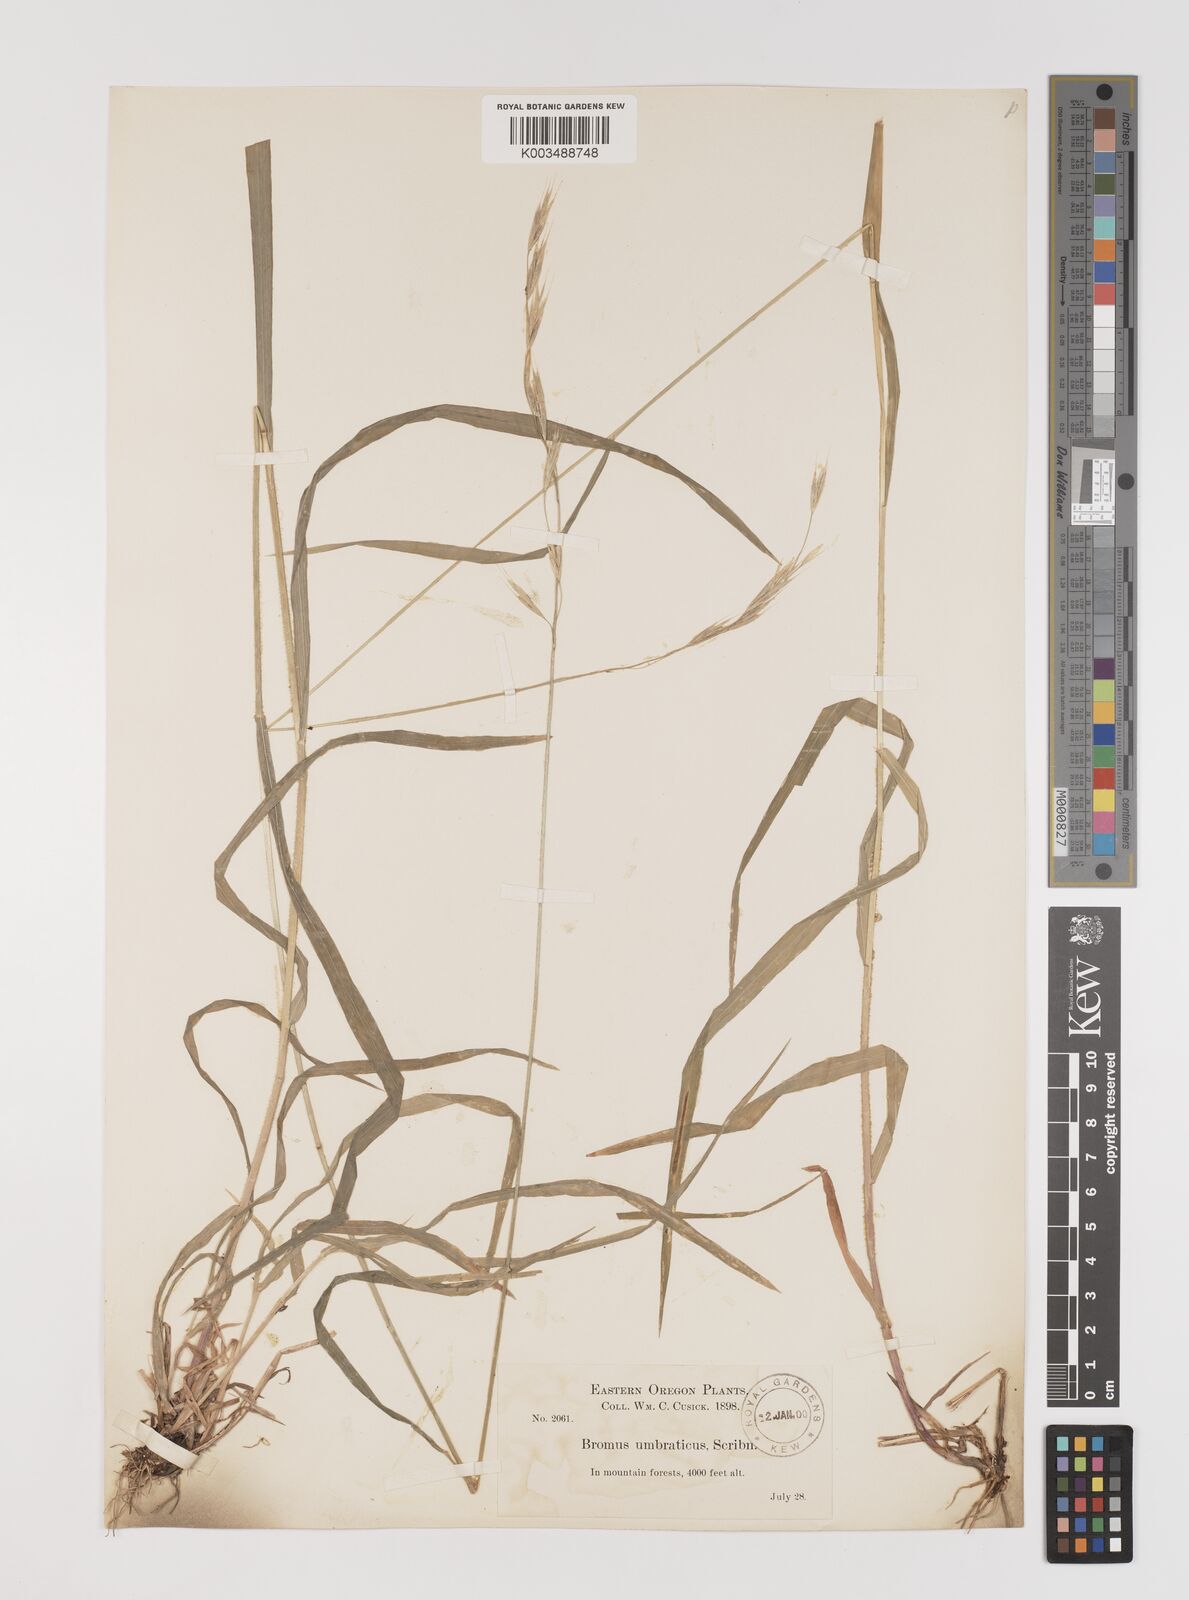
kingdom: Plantae
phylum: Tracheophyta
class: Liliopsida
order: Poales
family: Poaceae
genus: Bromus
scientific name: Bromus
